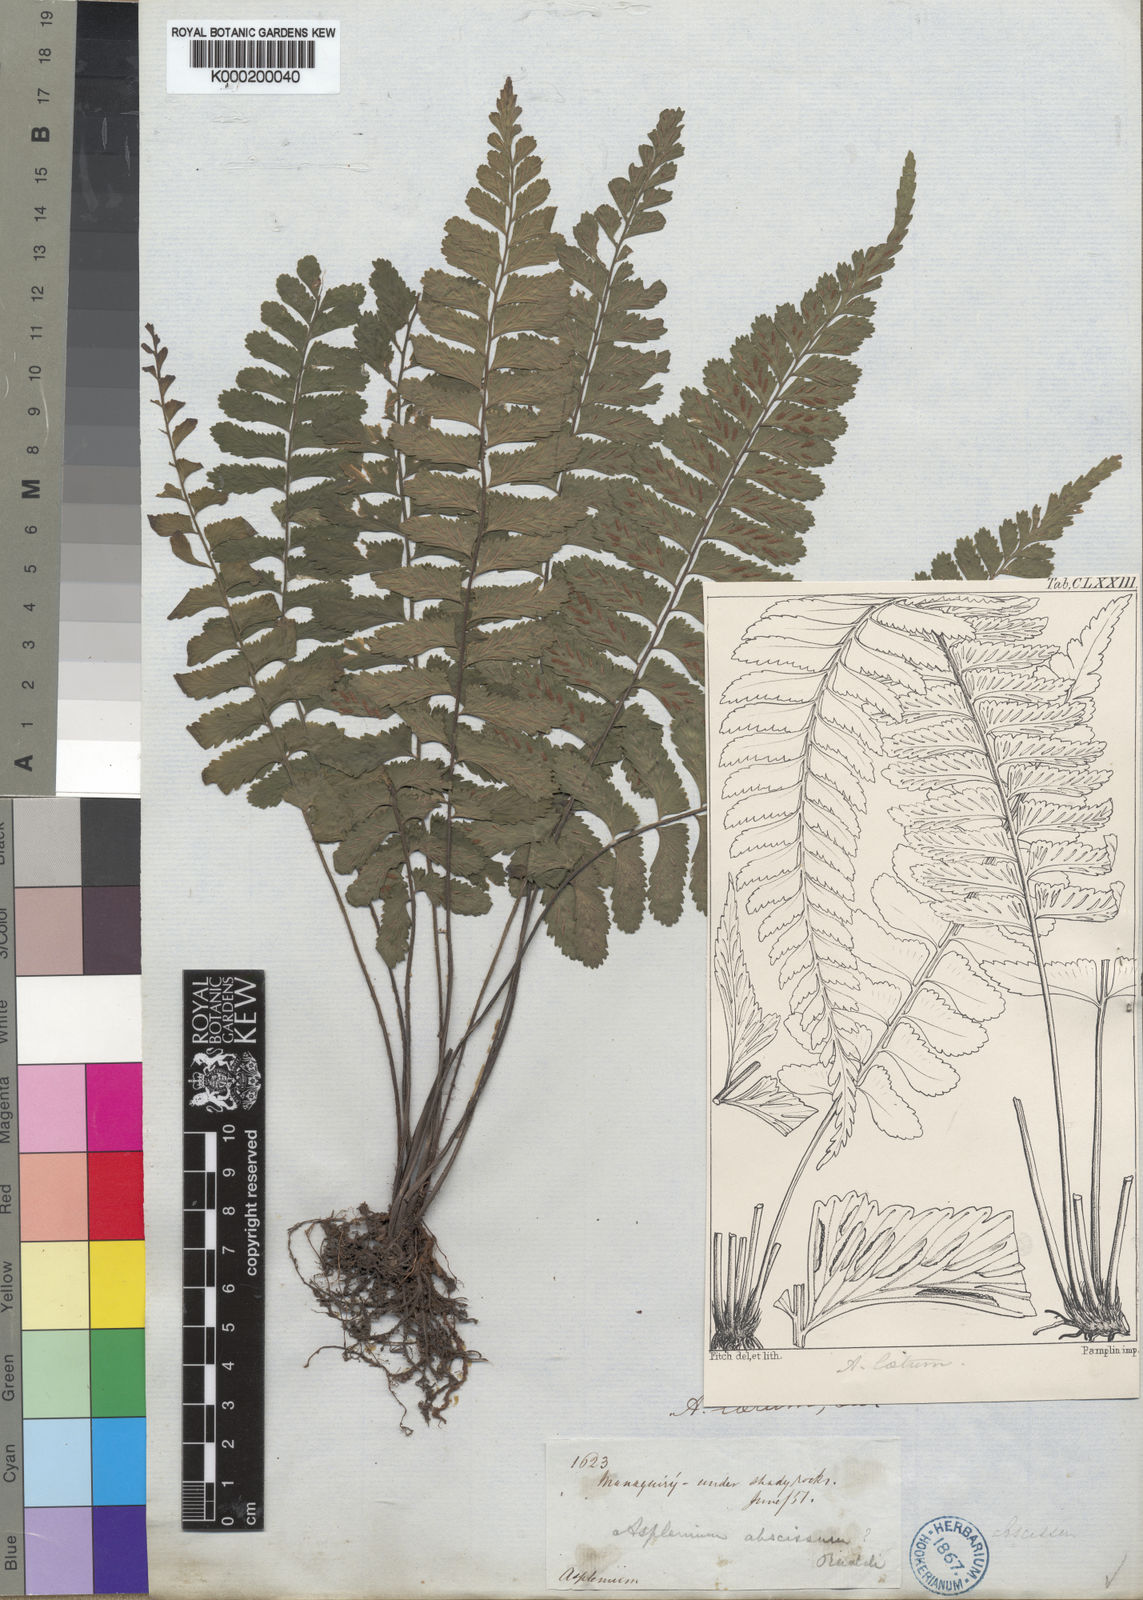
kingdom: Plantae
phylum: Tracheophyta
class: Polypodiopsida
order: Polypodiales
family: Aspleniaceae
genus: Asplenium
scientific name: Asplenium abscissum
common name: Cutleaf spleenwort
